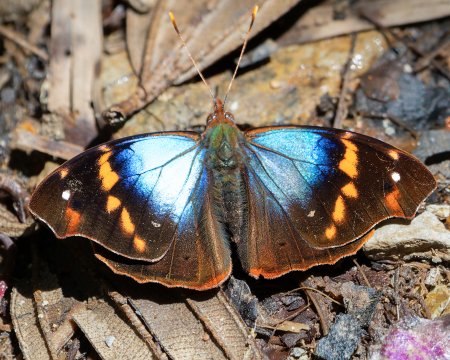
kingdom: Animalia
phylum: Arthropoda
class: Insecta
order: Lepidoptera
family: Nymphalidae
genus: Epiphile
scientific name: Epiphile epimenes
